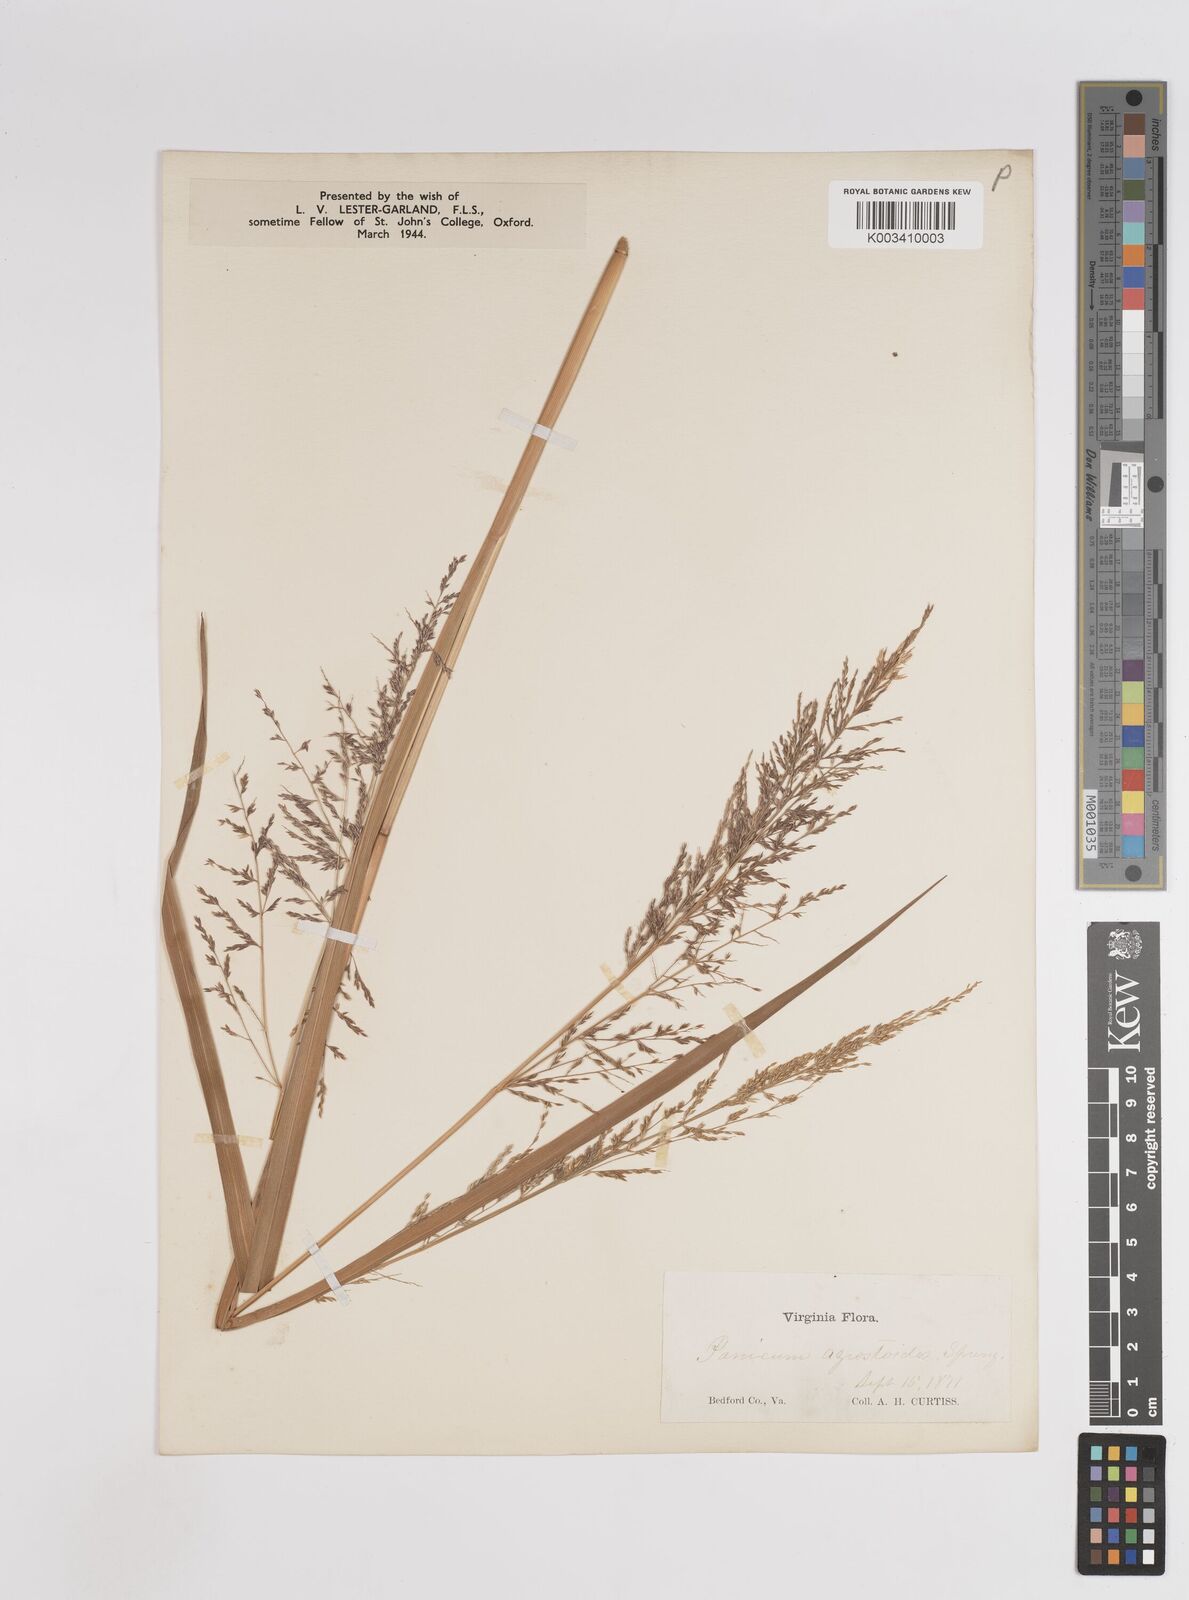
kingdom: Plantae
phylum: Tracheophyta
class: Liliopsida
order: Poales
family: Poaceae
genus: Coleataenia
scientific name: Coleataenia pulchra
